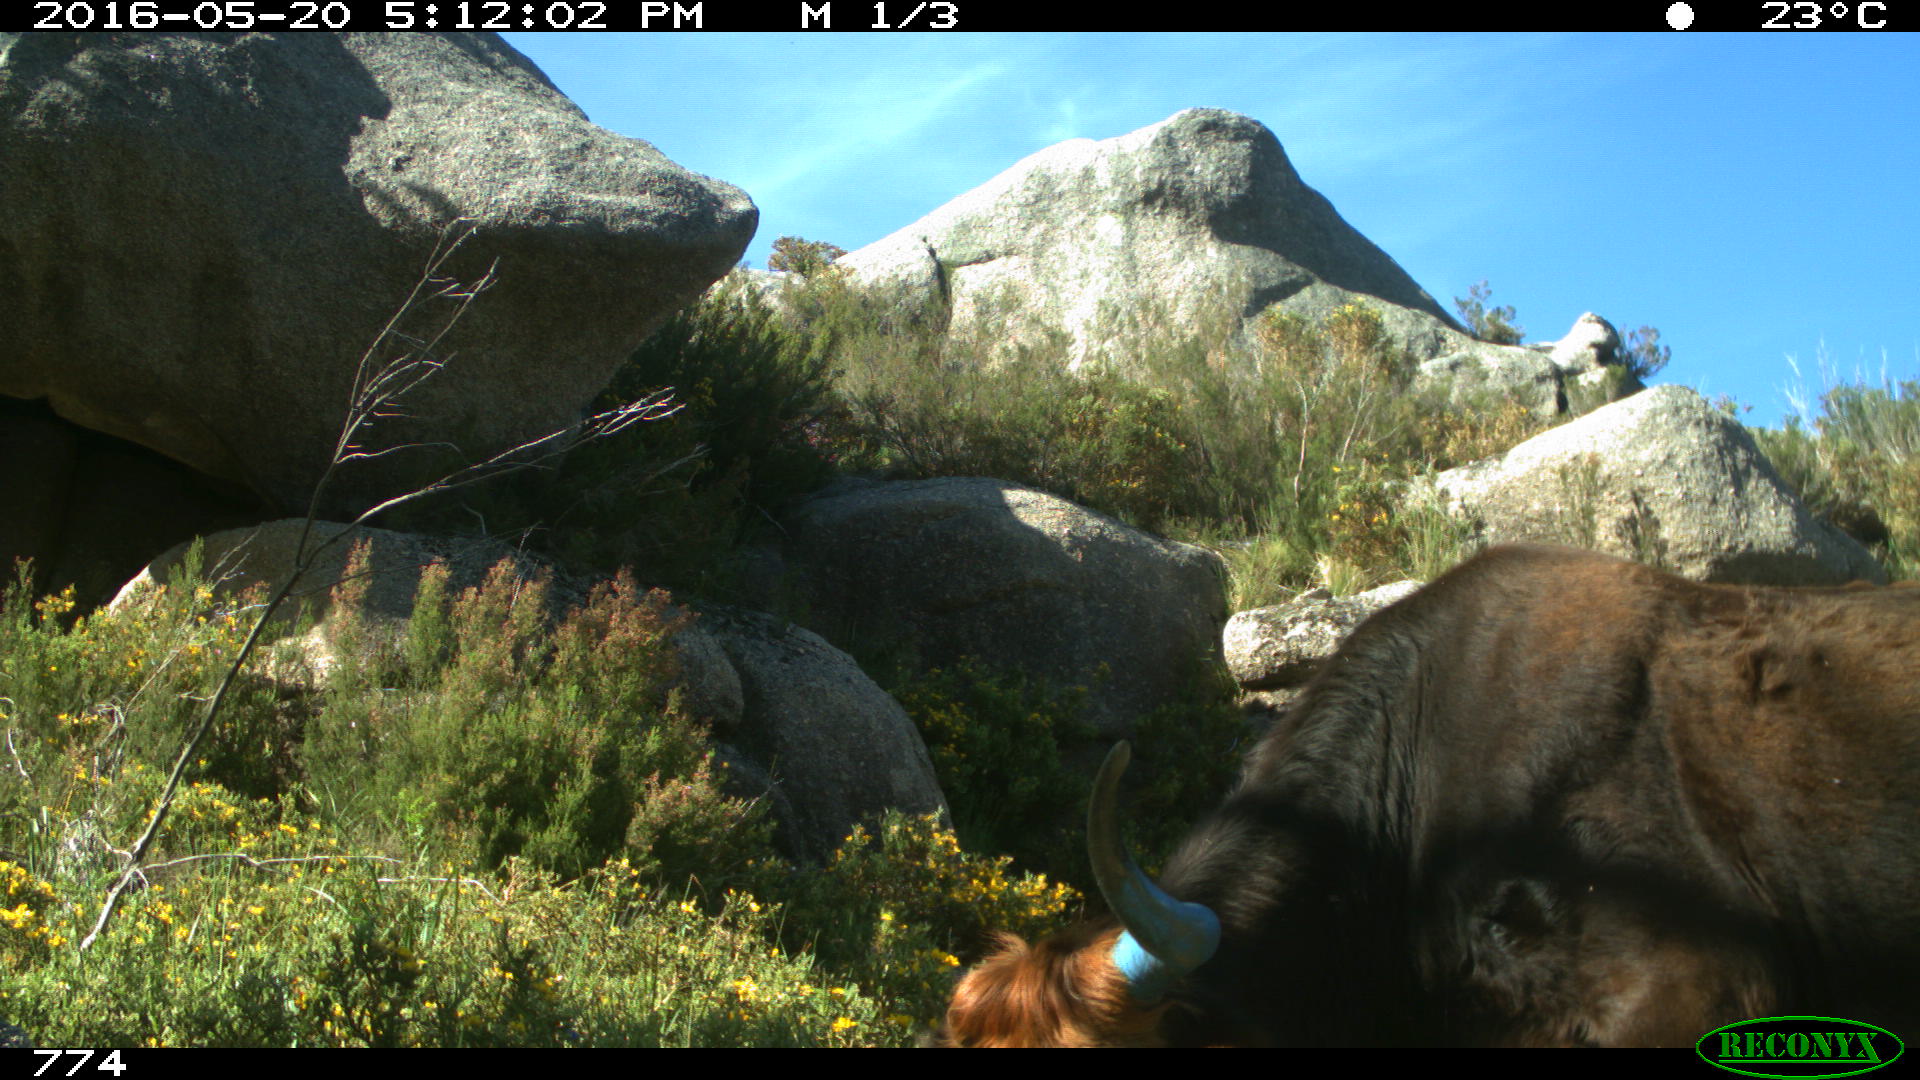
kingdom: Animalia
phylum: Chordata
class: Mammalia
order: Artiodactyla
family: Bovidae
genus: Bos
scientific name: Bos taurus
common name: Domesticated cattle
